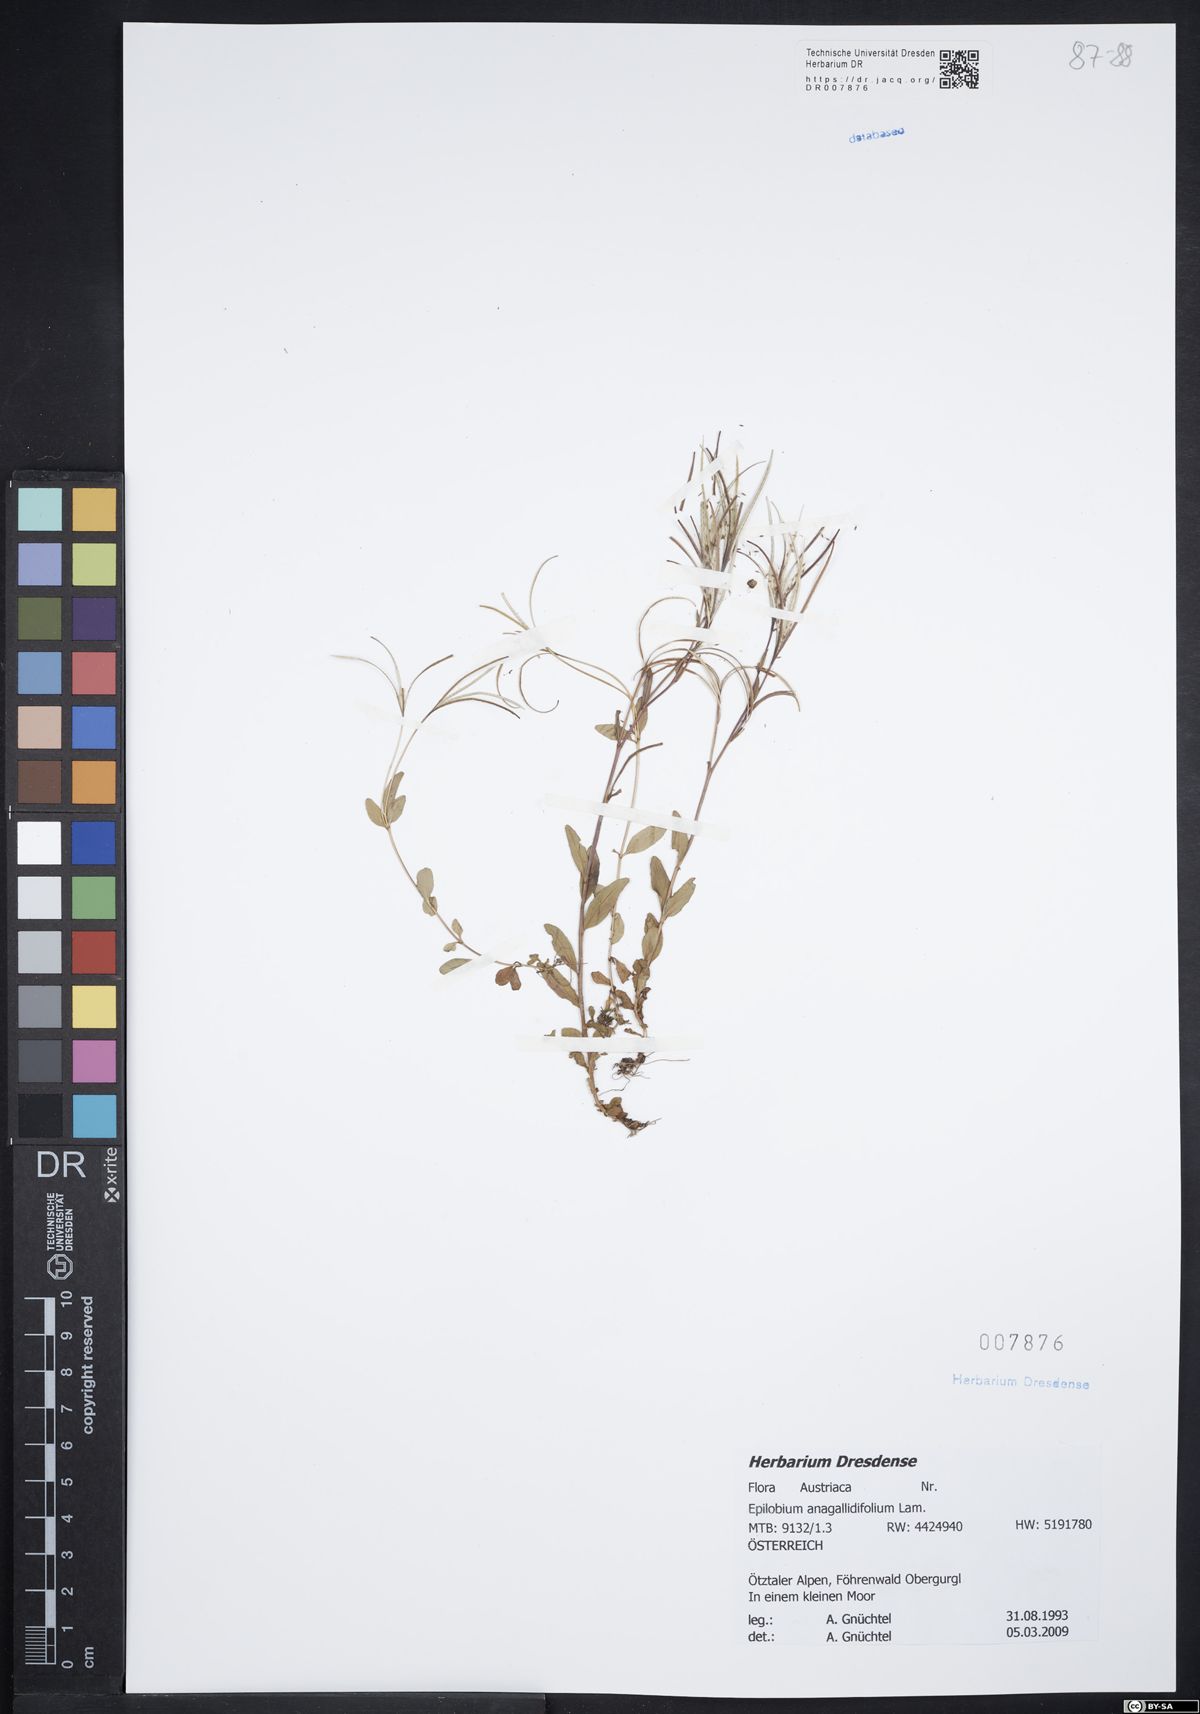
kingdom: Plantae
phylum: Tracheophyta
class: Magnoliopsida
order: Myrtales
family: Onagraceae
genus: Epilobium
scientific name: Epilobium anagallidifolium
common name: Alpine willowherb
